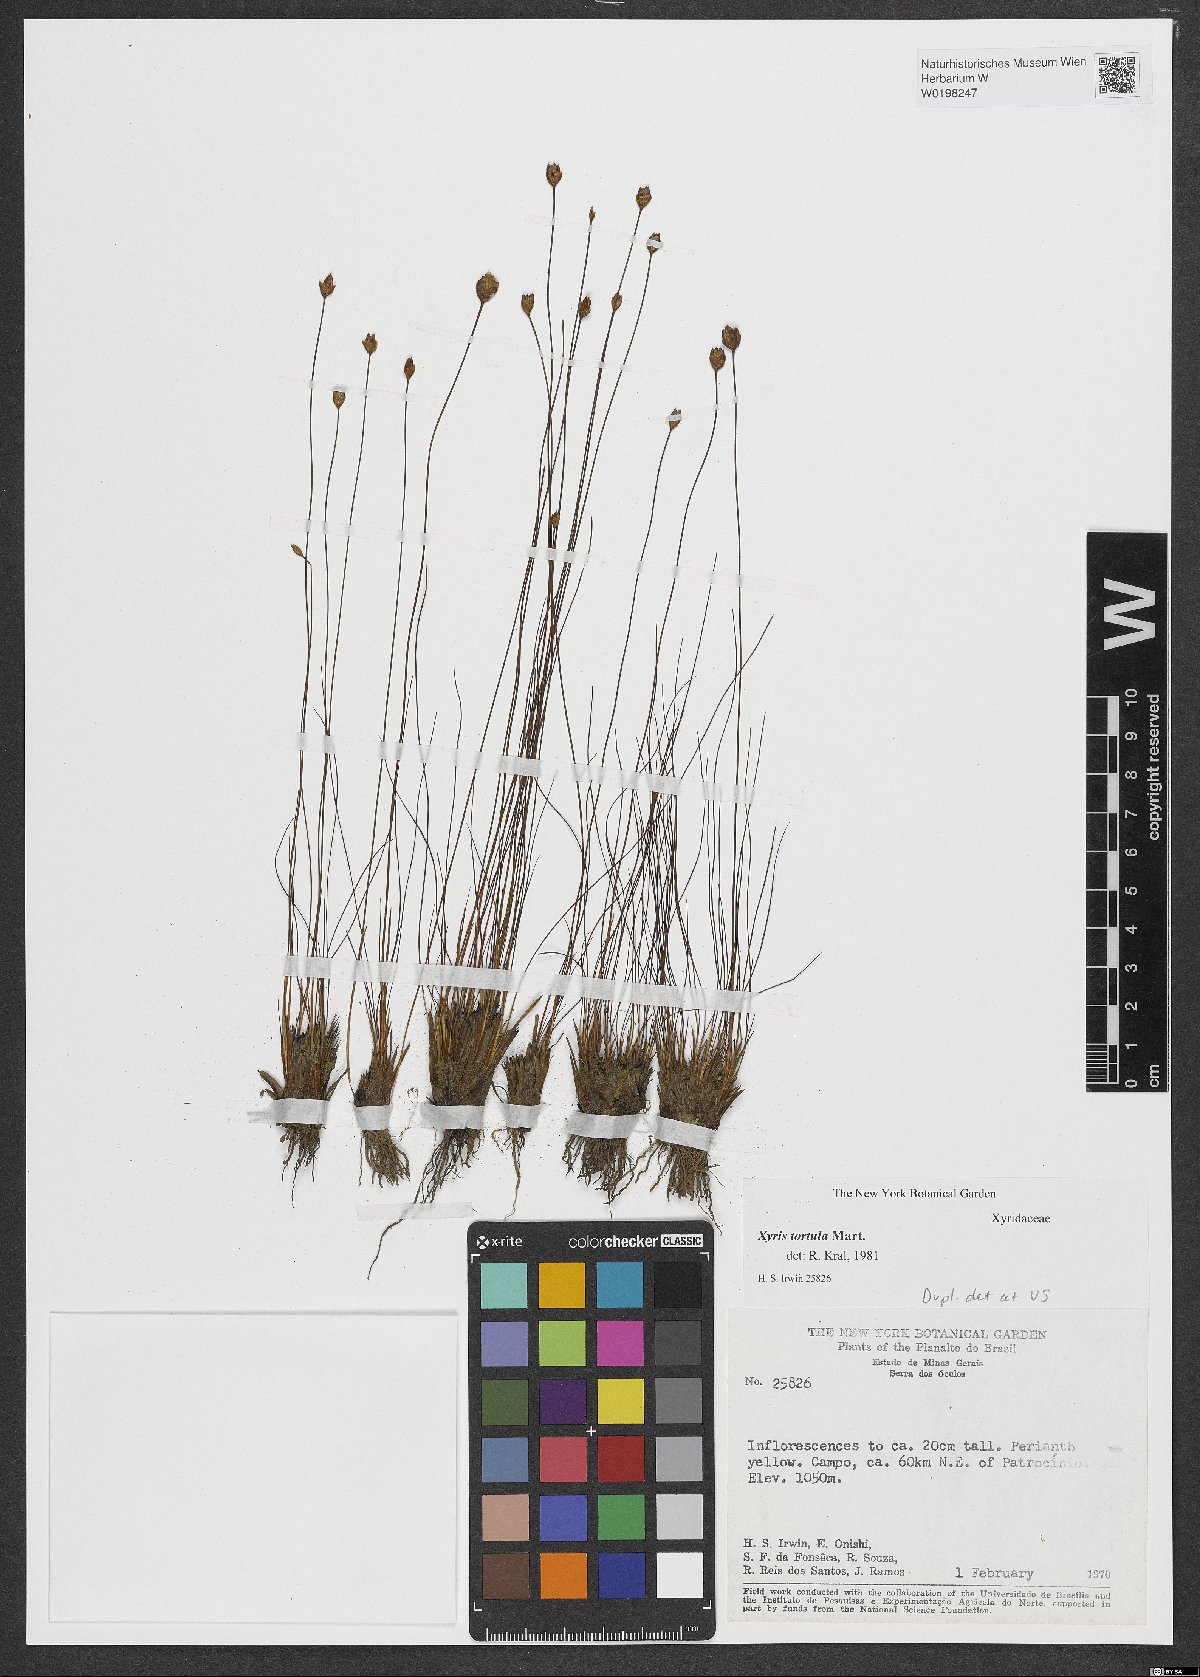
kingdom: Plantae
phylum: Tracheophyta
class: Liliopsida
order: Poales
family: Xyridaceae
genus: Xyris
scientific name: Xyris tortula
